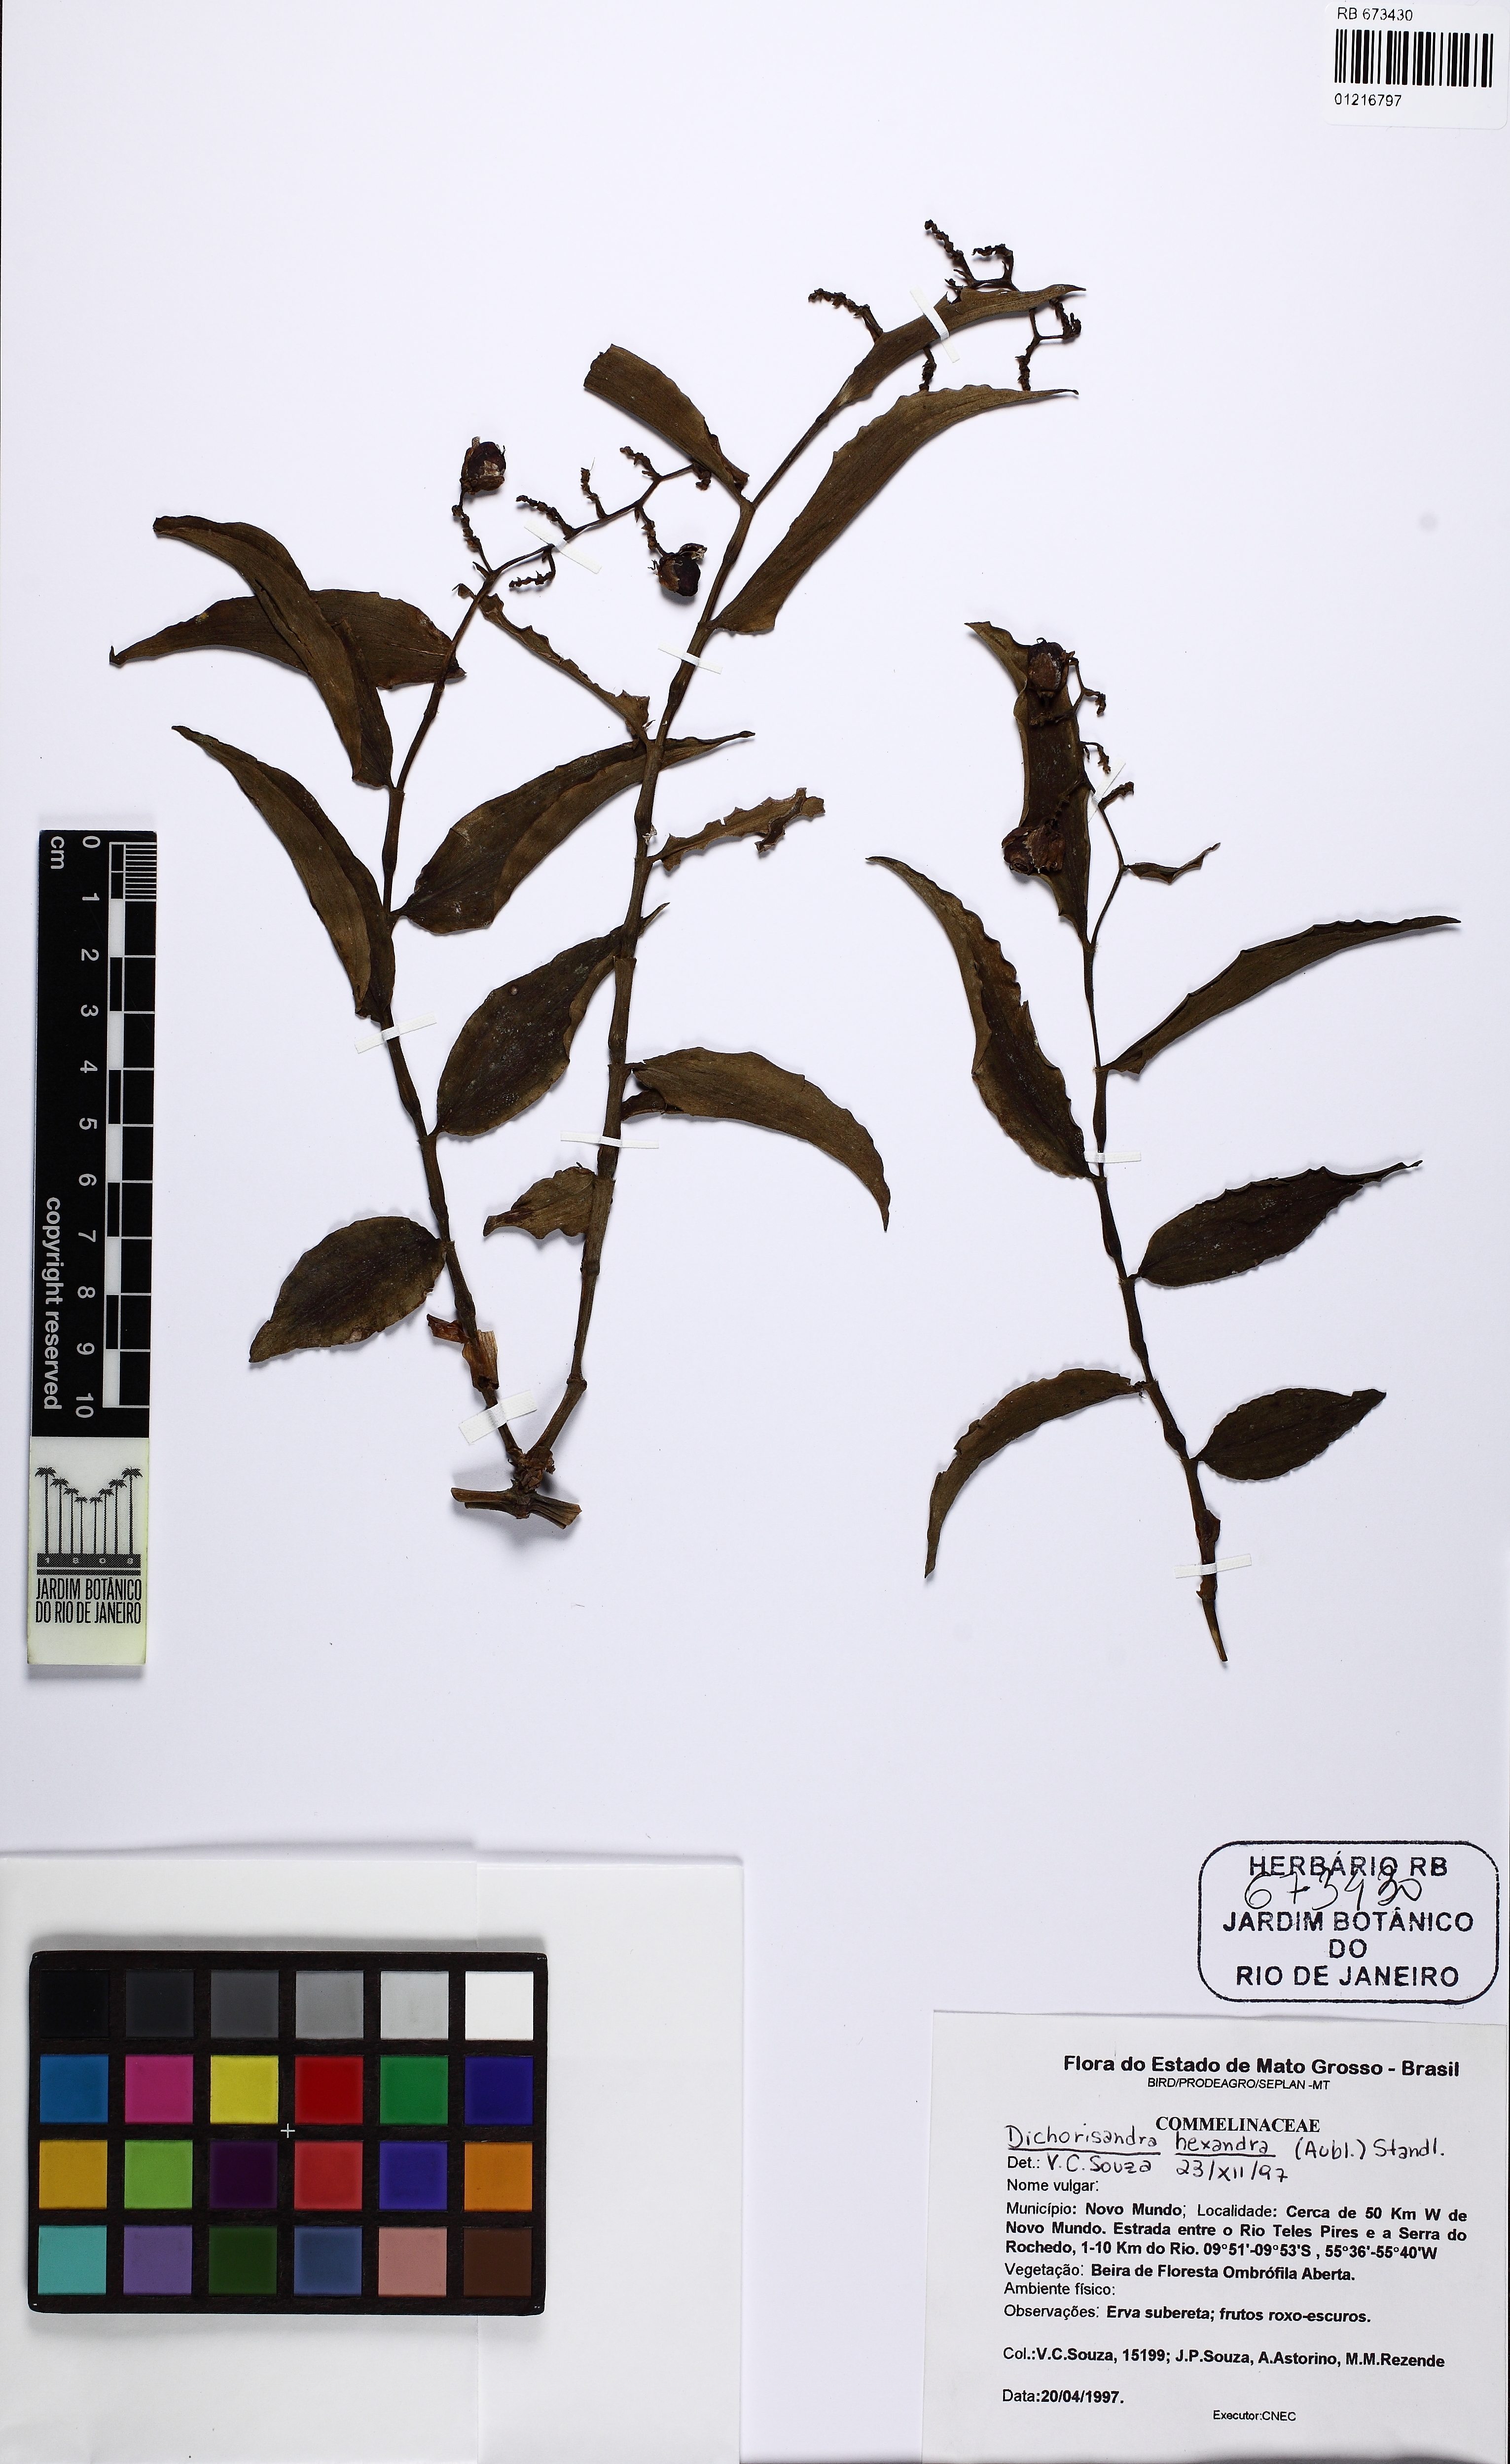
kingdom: Plantae
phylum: Tracheophyta
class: Liliopsida
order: Commelinales
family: Commelinaceae
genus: Dichorisandra
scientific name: Dichorisandra hexandra
